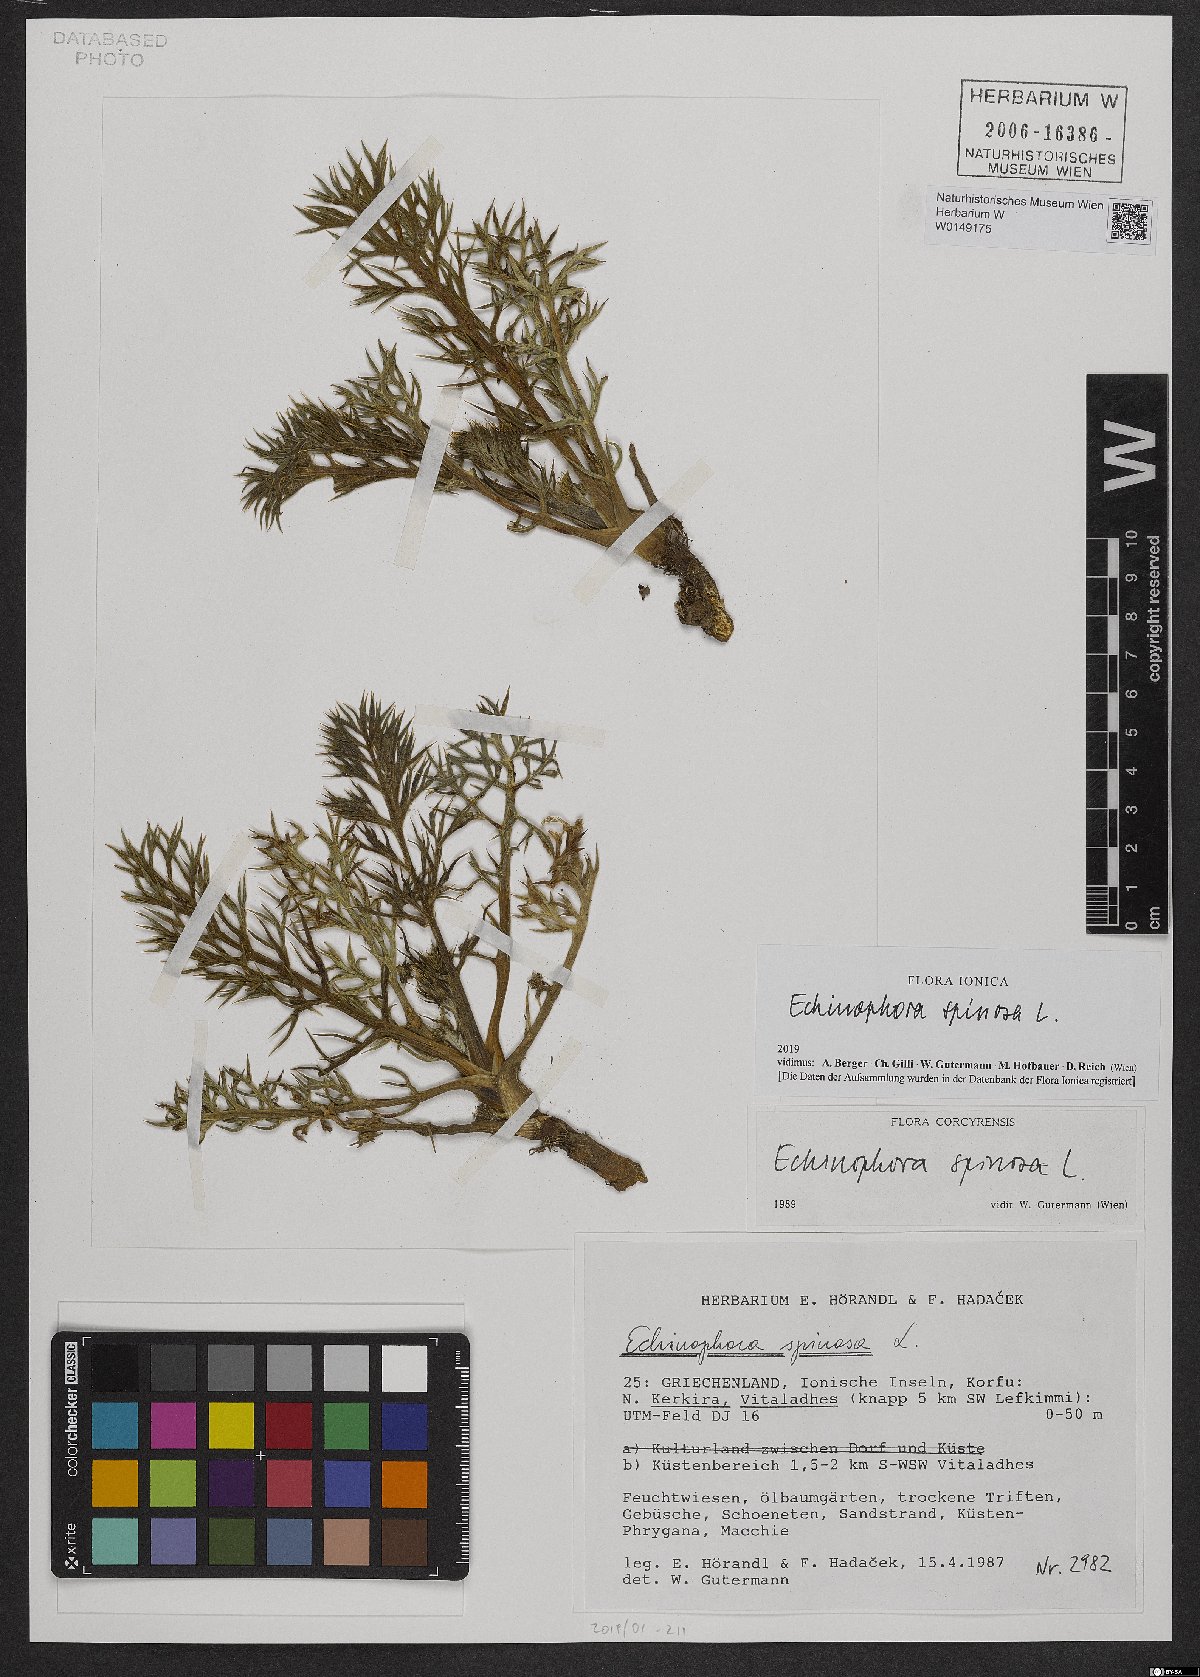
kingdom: Plantae
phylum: Tracheophyta
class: Magnoliopsida
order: Apiales
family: Apiaceae
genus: Echinophora
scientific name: Echinophora spinosa
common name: Prickly samphire
